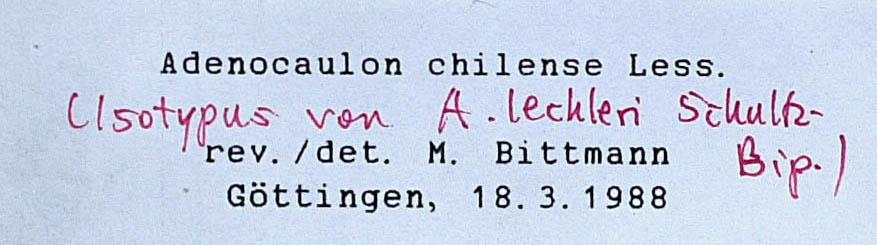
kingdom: Plantae
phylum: Tracheophyta
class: Magnoliopsida
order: Asterales
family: Asteraceae
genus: Adenocaulon
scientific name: Adenocaulon chilense
